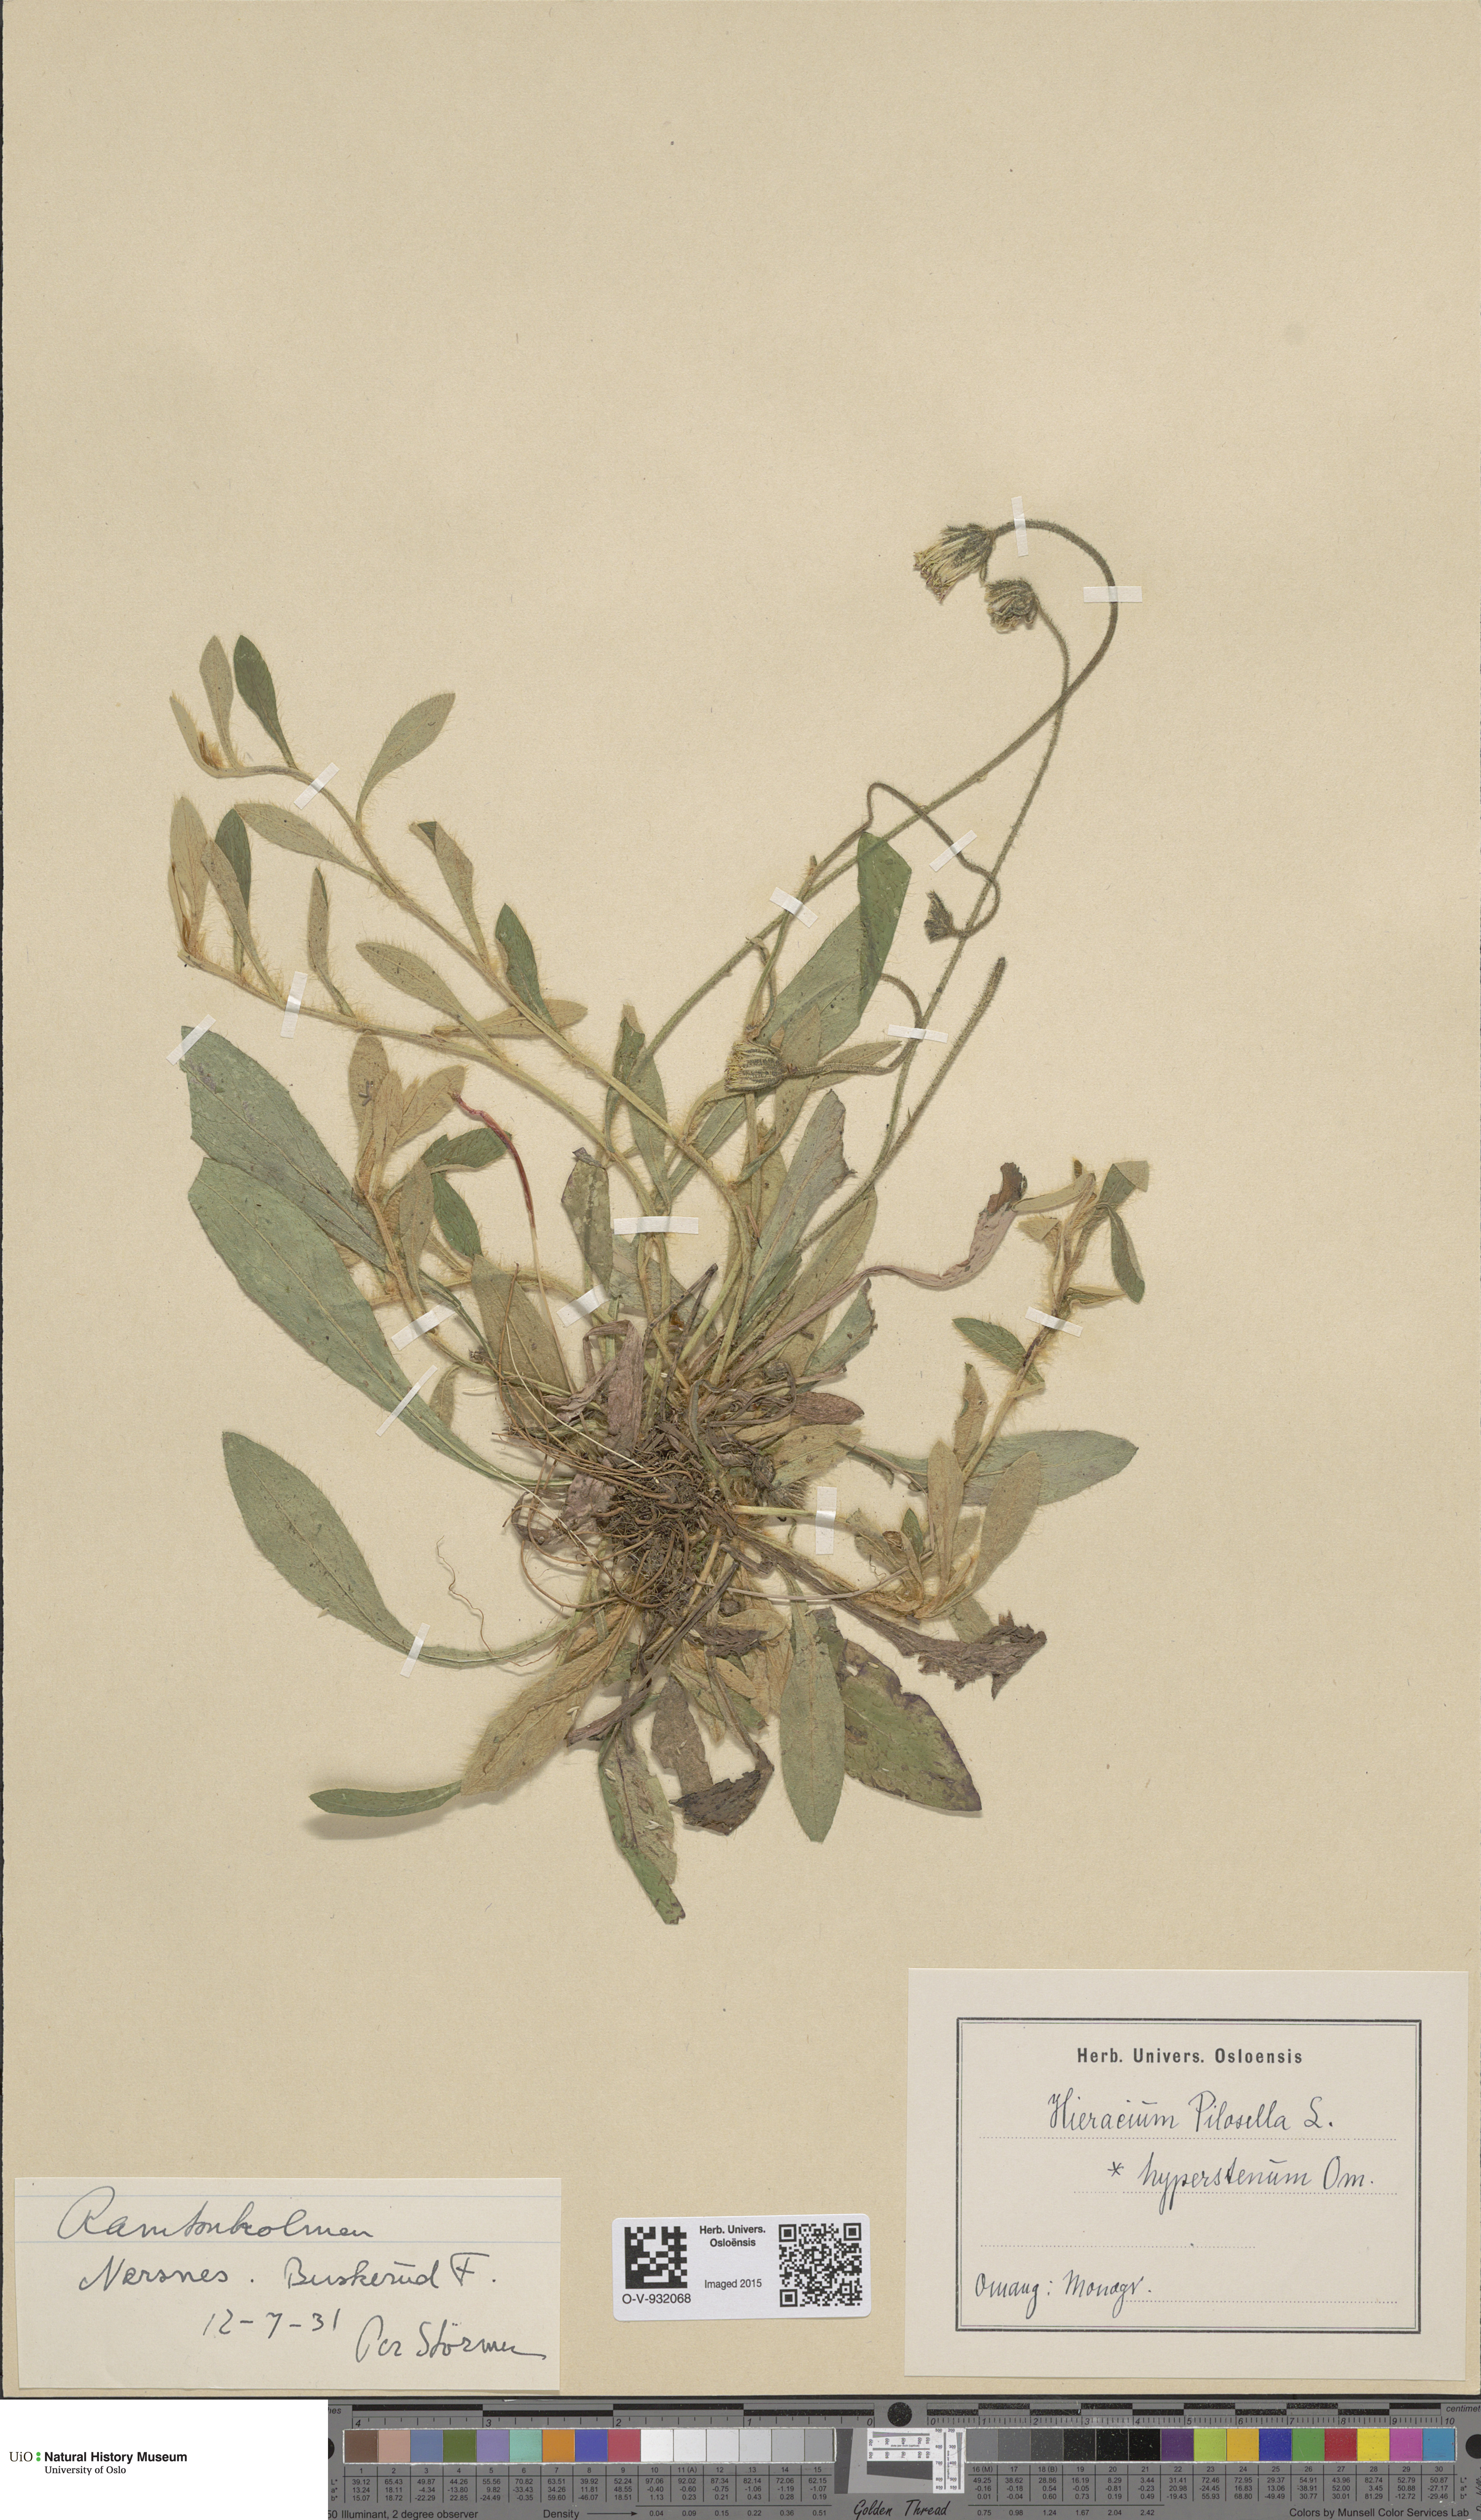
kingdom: Plantae
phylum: Tracheophyta
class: Magnoliopsida
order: Asterales
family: Asteraceae
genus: Pilosella
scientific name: Pilosella officinarum
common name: Mouse-ear hawkweed
